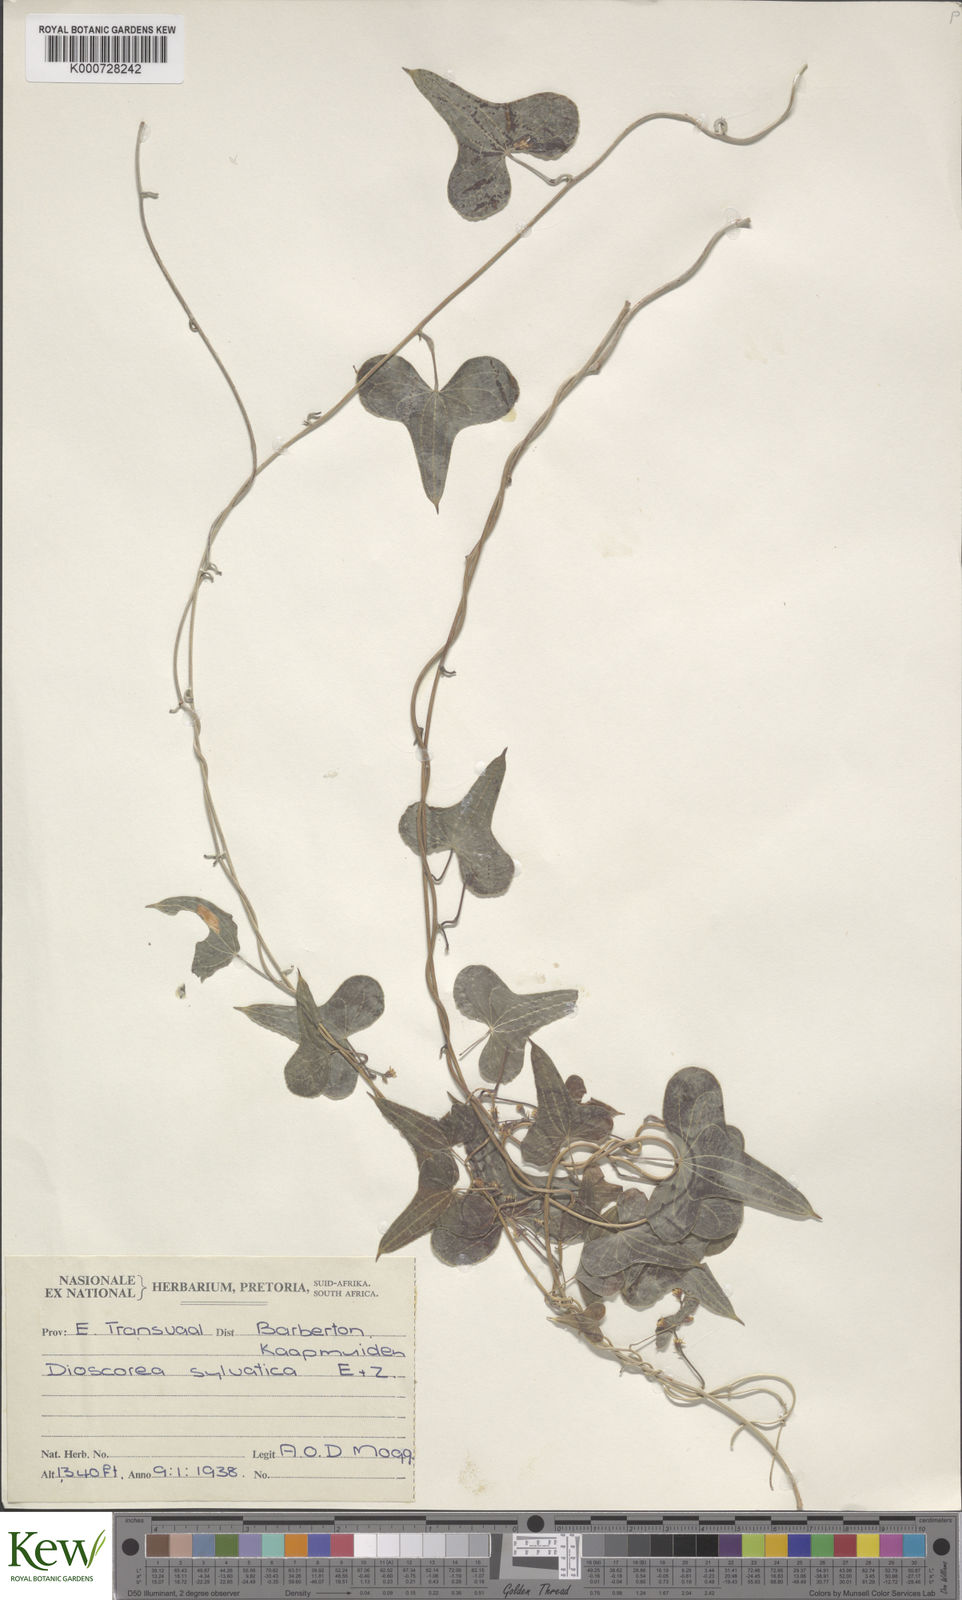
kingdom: Plantae
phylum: Tracheophyta
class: Liliopsida
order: Dioscoreales
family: Dioscoreaceae
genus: Dioscorea
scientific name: Dioscorea sylvatica
